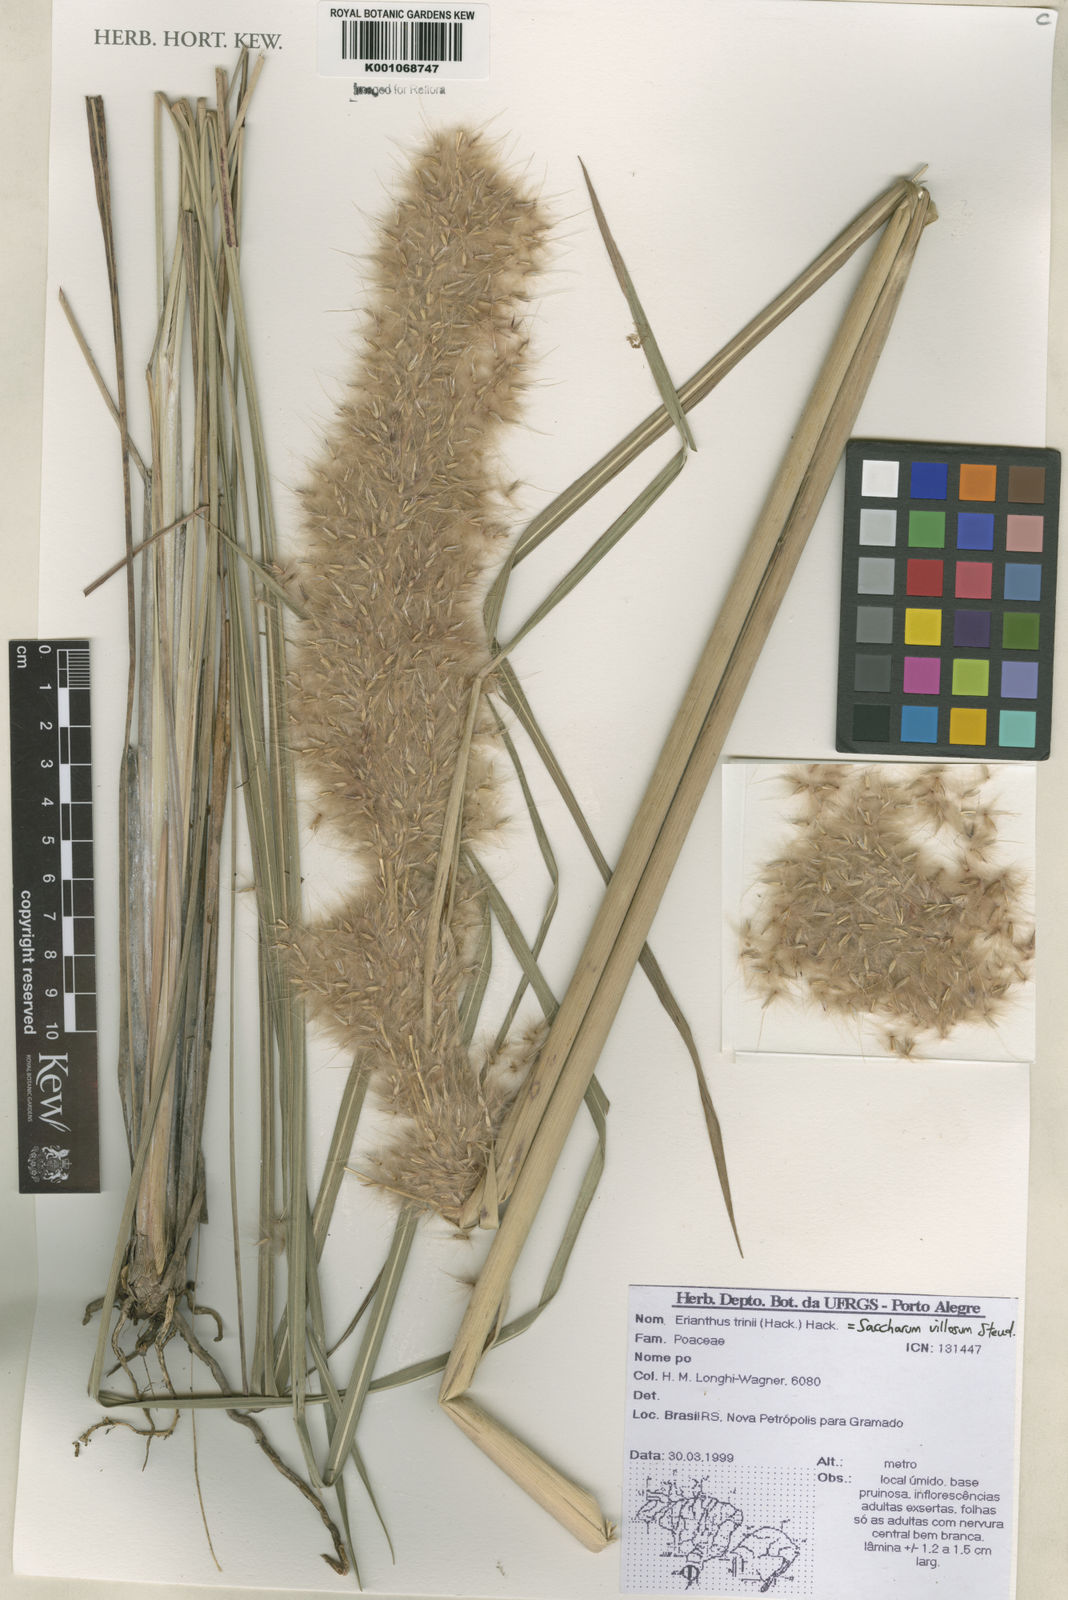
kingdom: Plantae
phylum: Tracheophyta
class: Liliopsida
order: Poales
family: Poaceae
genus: Erianthus
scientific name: Erianthus trinii
